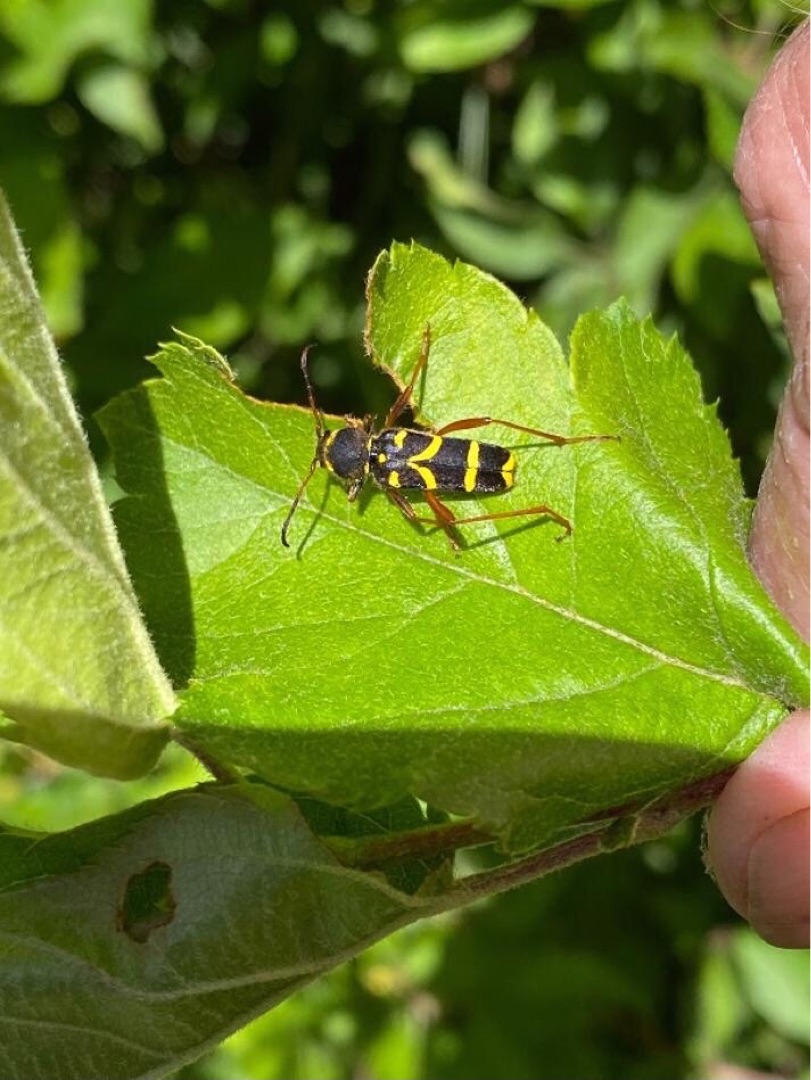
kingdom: Animalia
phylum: Arthropoda
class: Insecta
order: Coleoptera
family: Cerambycidae
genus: Clytus
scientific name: Clytus arietis
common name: Lille hvepsebuk
